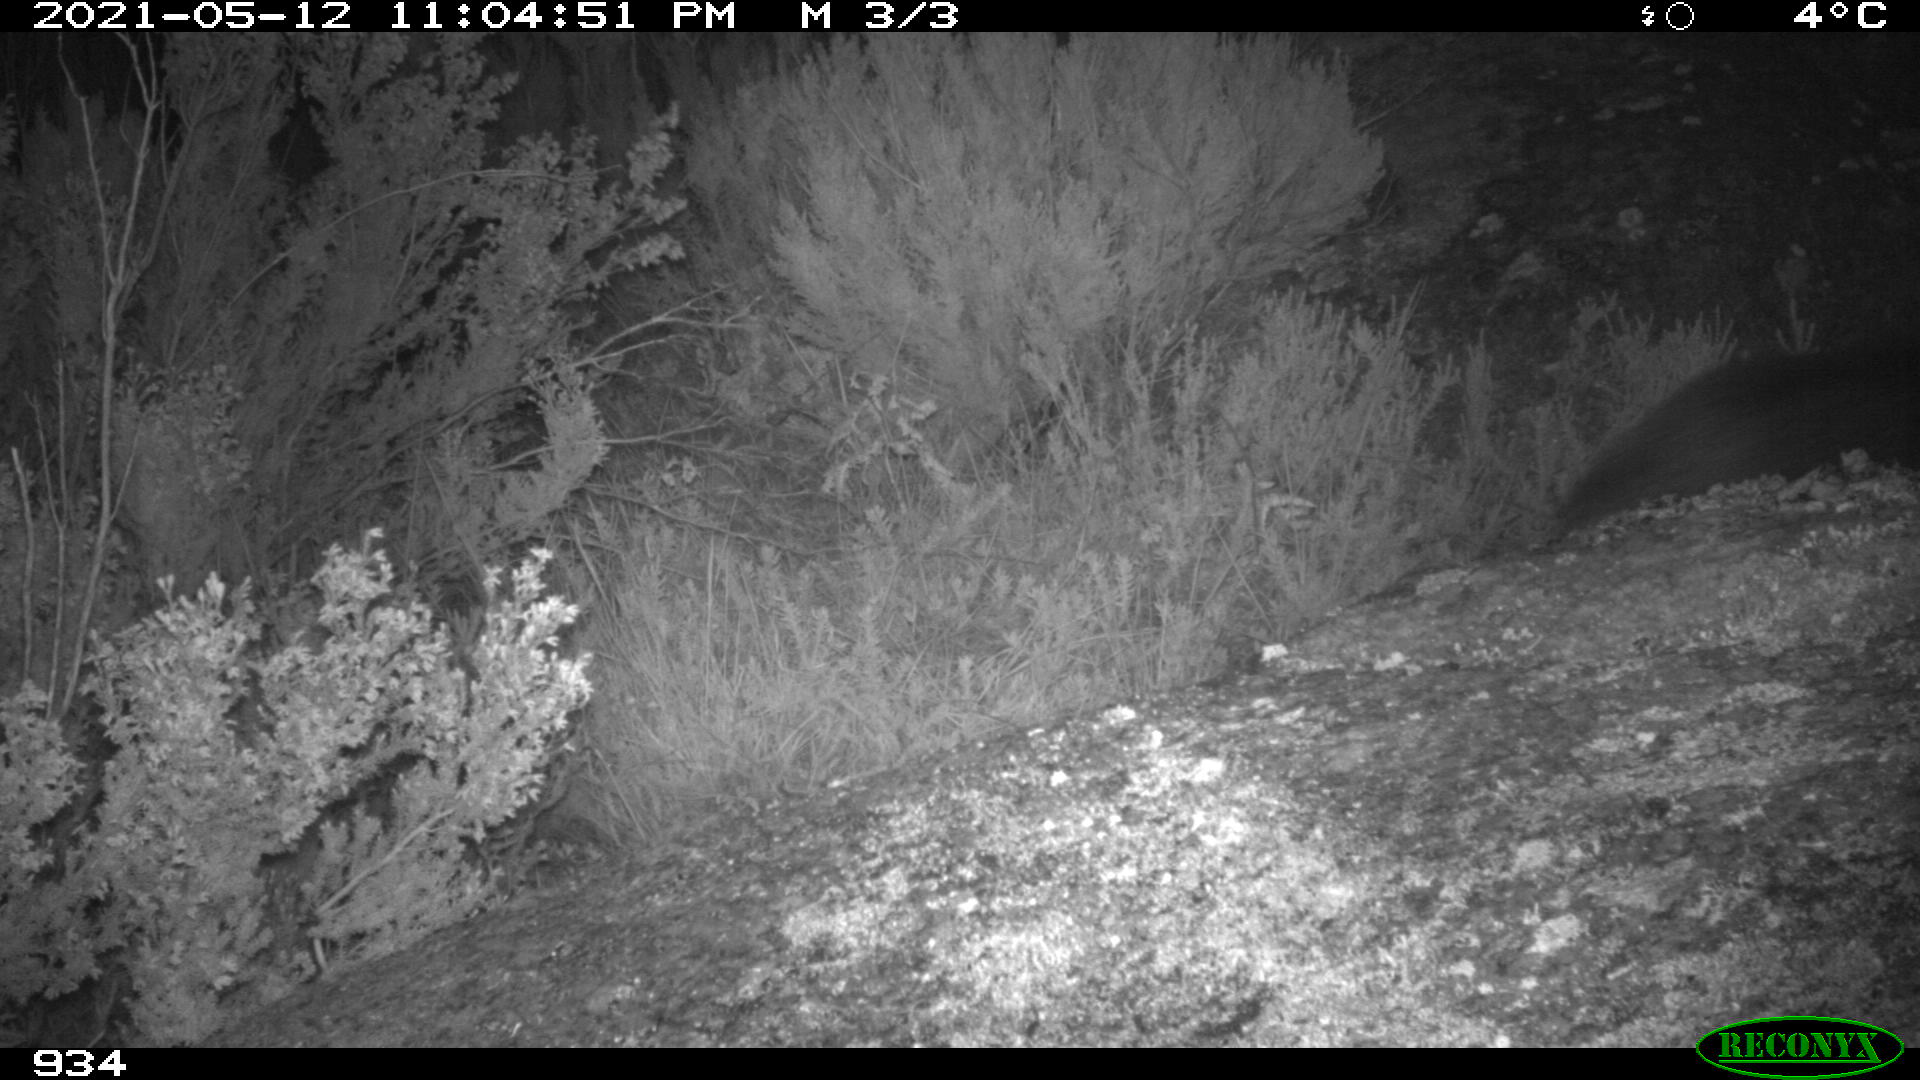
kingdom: Animalia
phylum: Chordata
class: Mammalia
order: Artiodactyla
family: Suidae
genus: Sus
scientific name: Sus scrofa
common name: Wild boar
